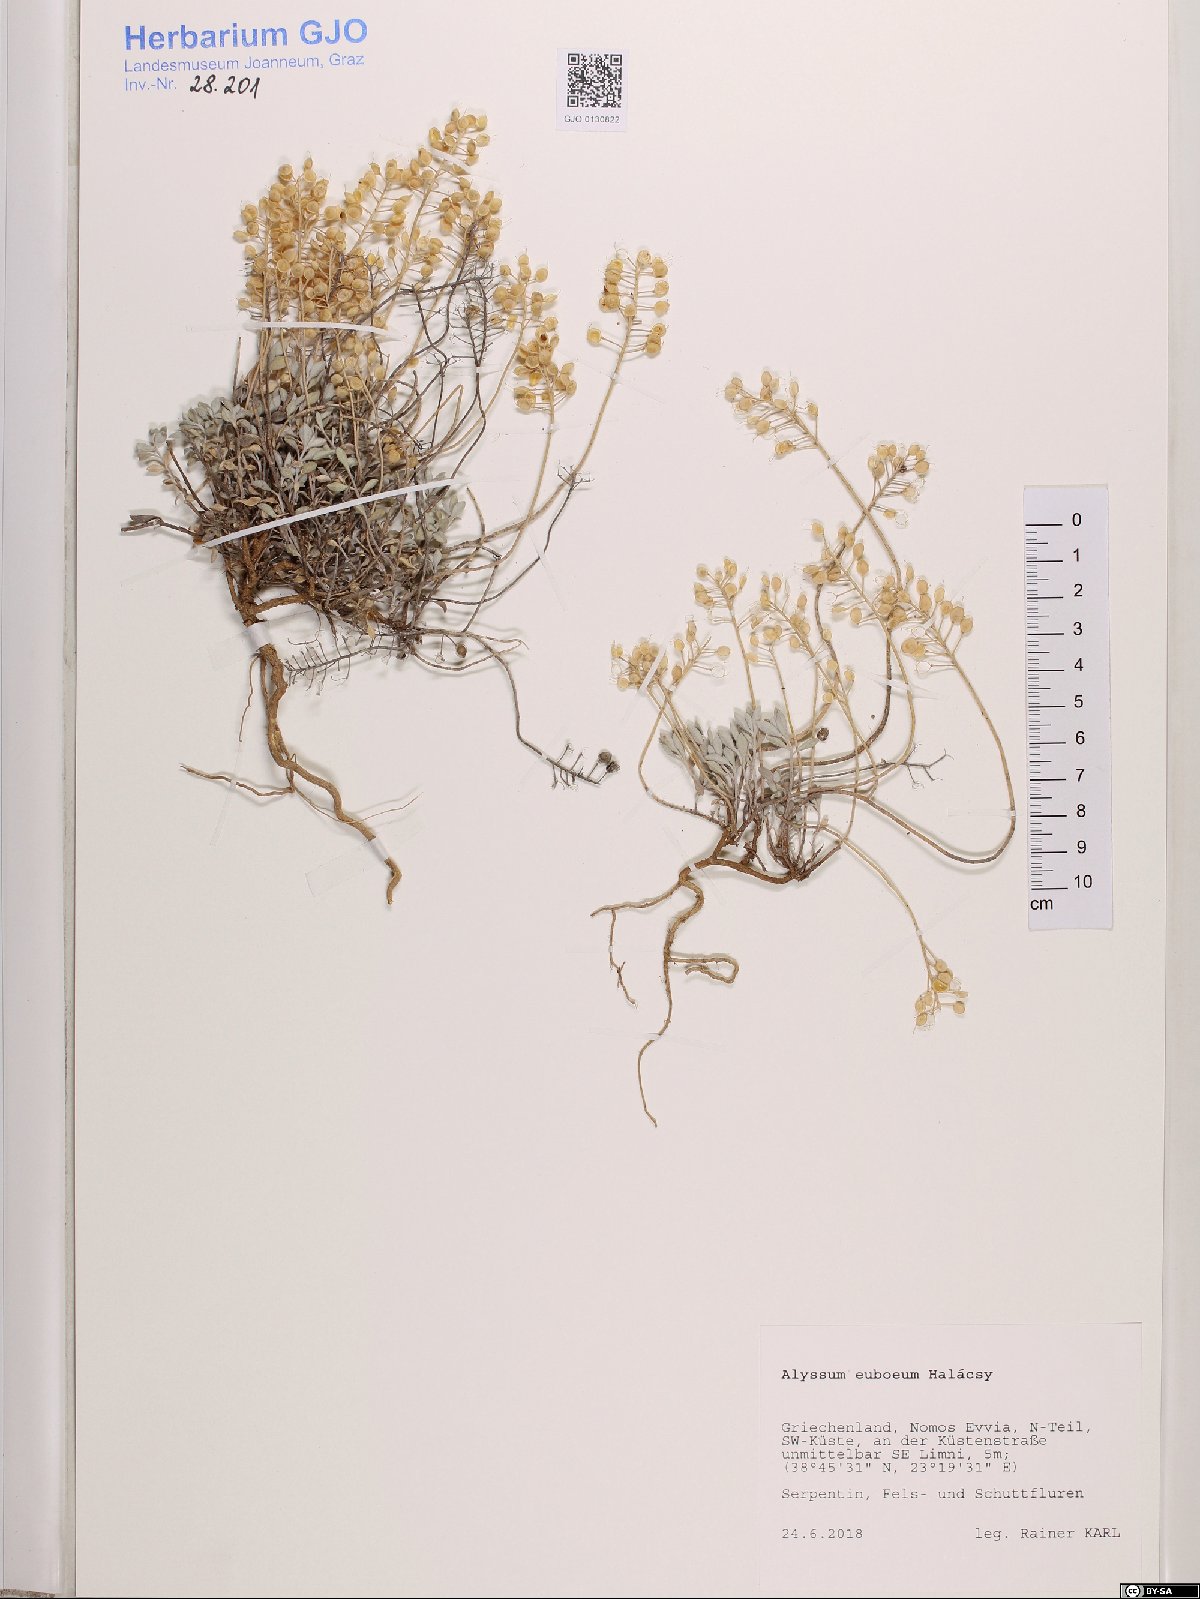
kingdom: Plantae
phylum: Tracheophyta
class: Magnoliopsida
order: Brassicales
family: Brassicaceae
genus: Odontarrhena
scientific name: Odontarrhena euboea
